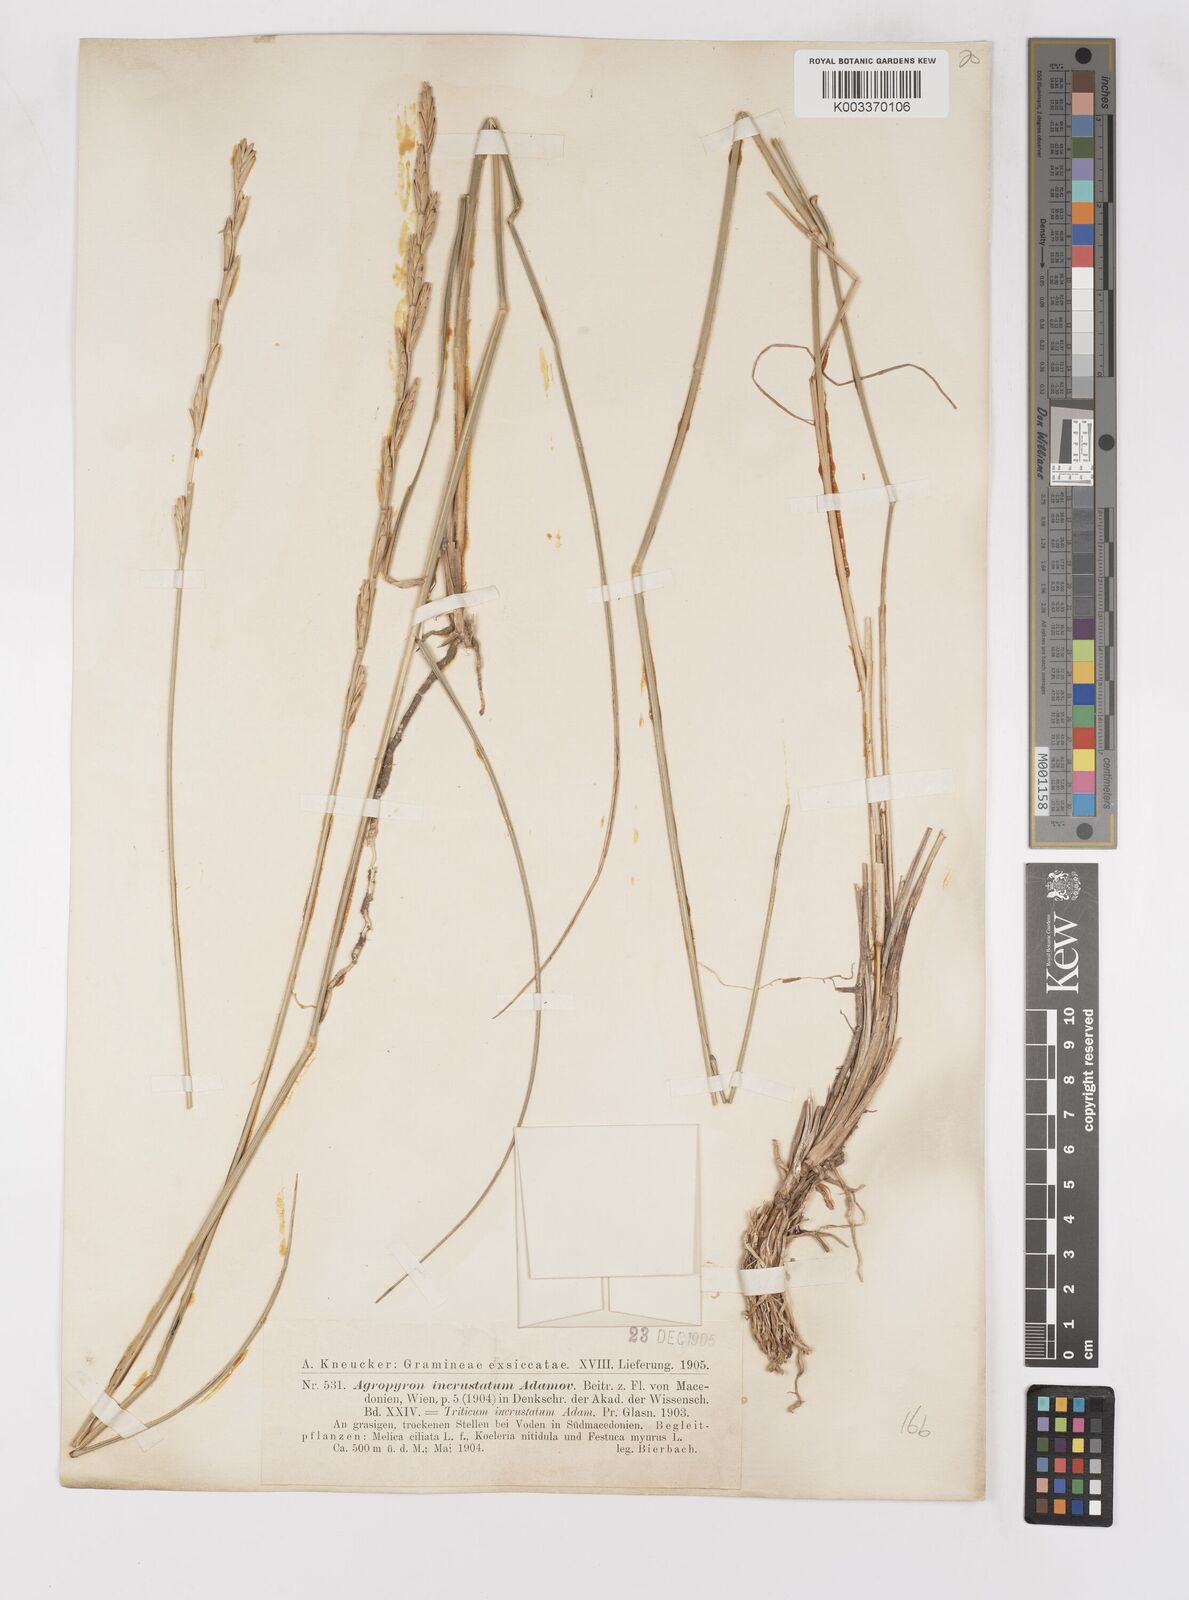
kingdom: Plantae
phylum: Tracheophyta
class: Liliopsida
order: Poales
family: Poaceae
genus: Thinopyrum
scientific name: Thinopyrum elongatum
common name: Tall wheatgrass
